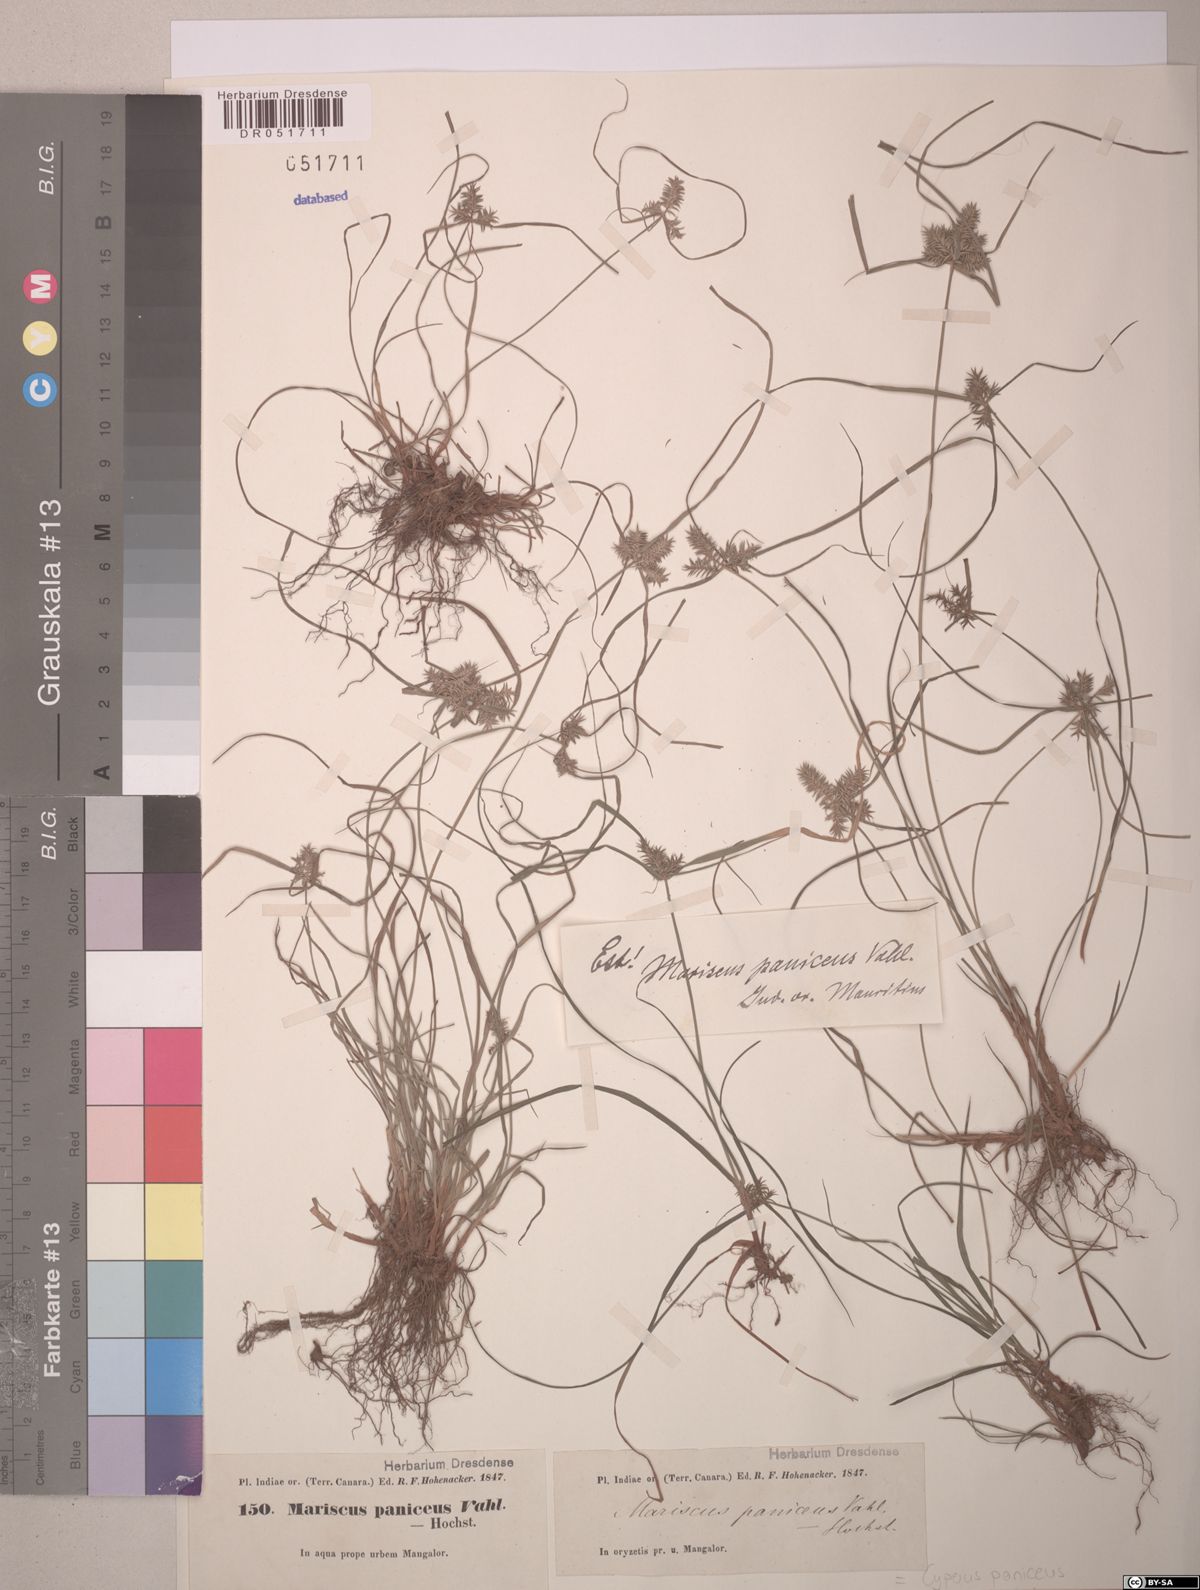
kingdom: Plantae
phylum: Tracheophyta
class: Liliopsida
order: Poales
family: Cyperaceae
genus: Cyperus
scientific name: Cyperus paniceus
